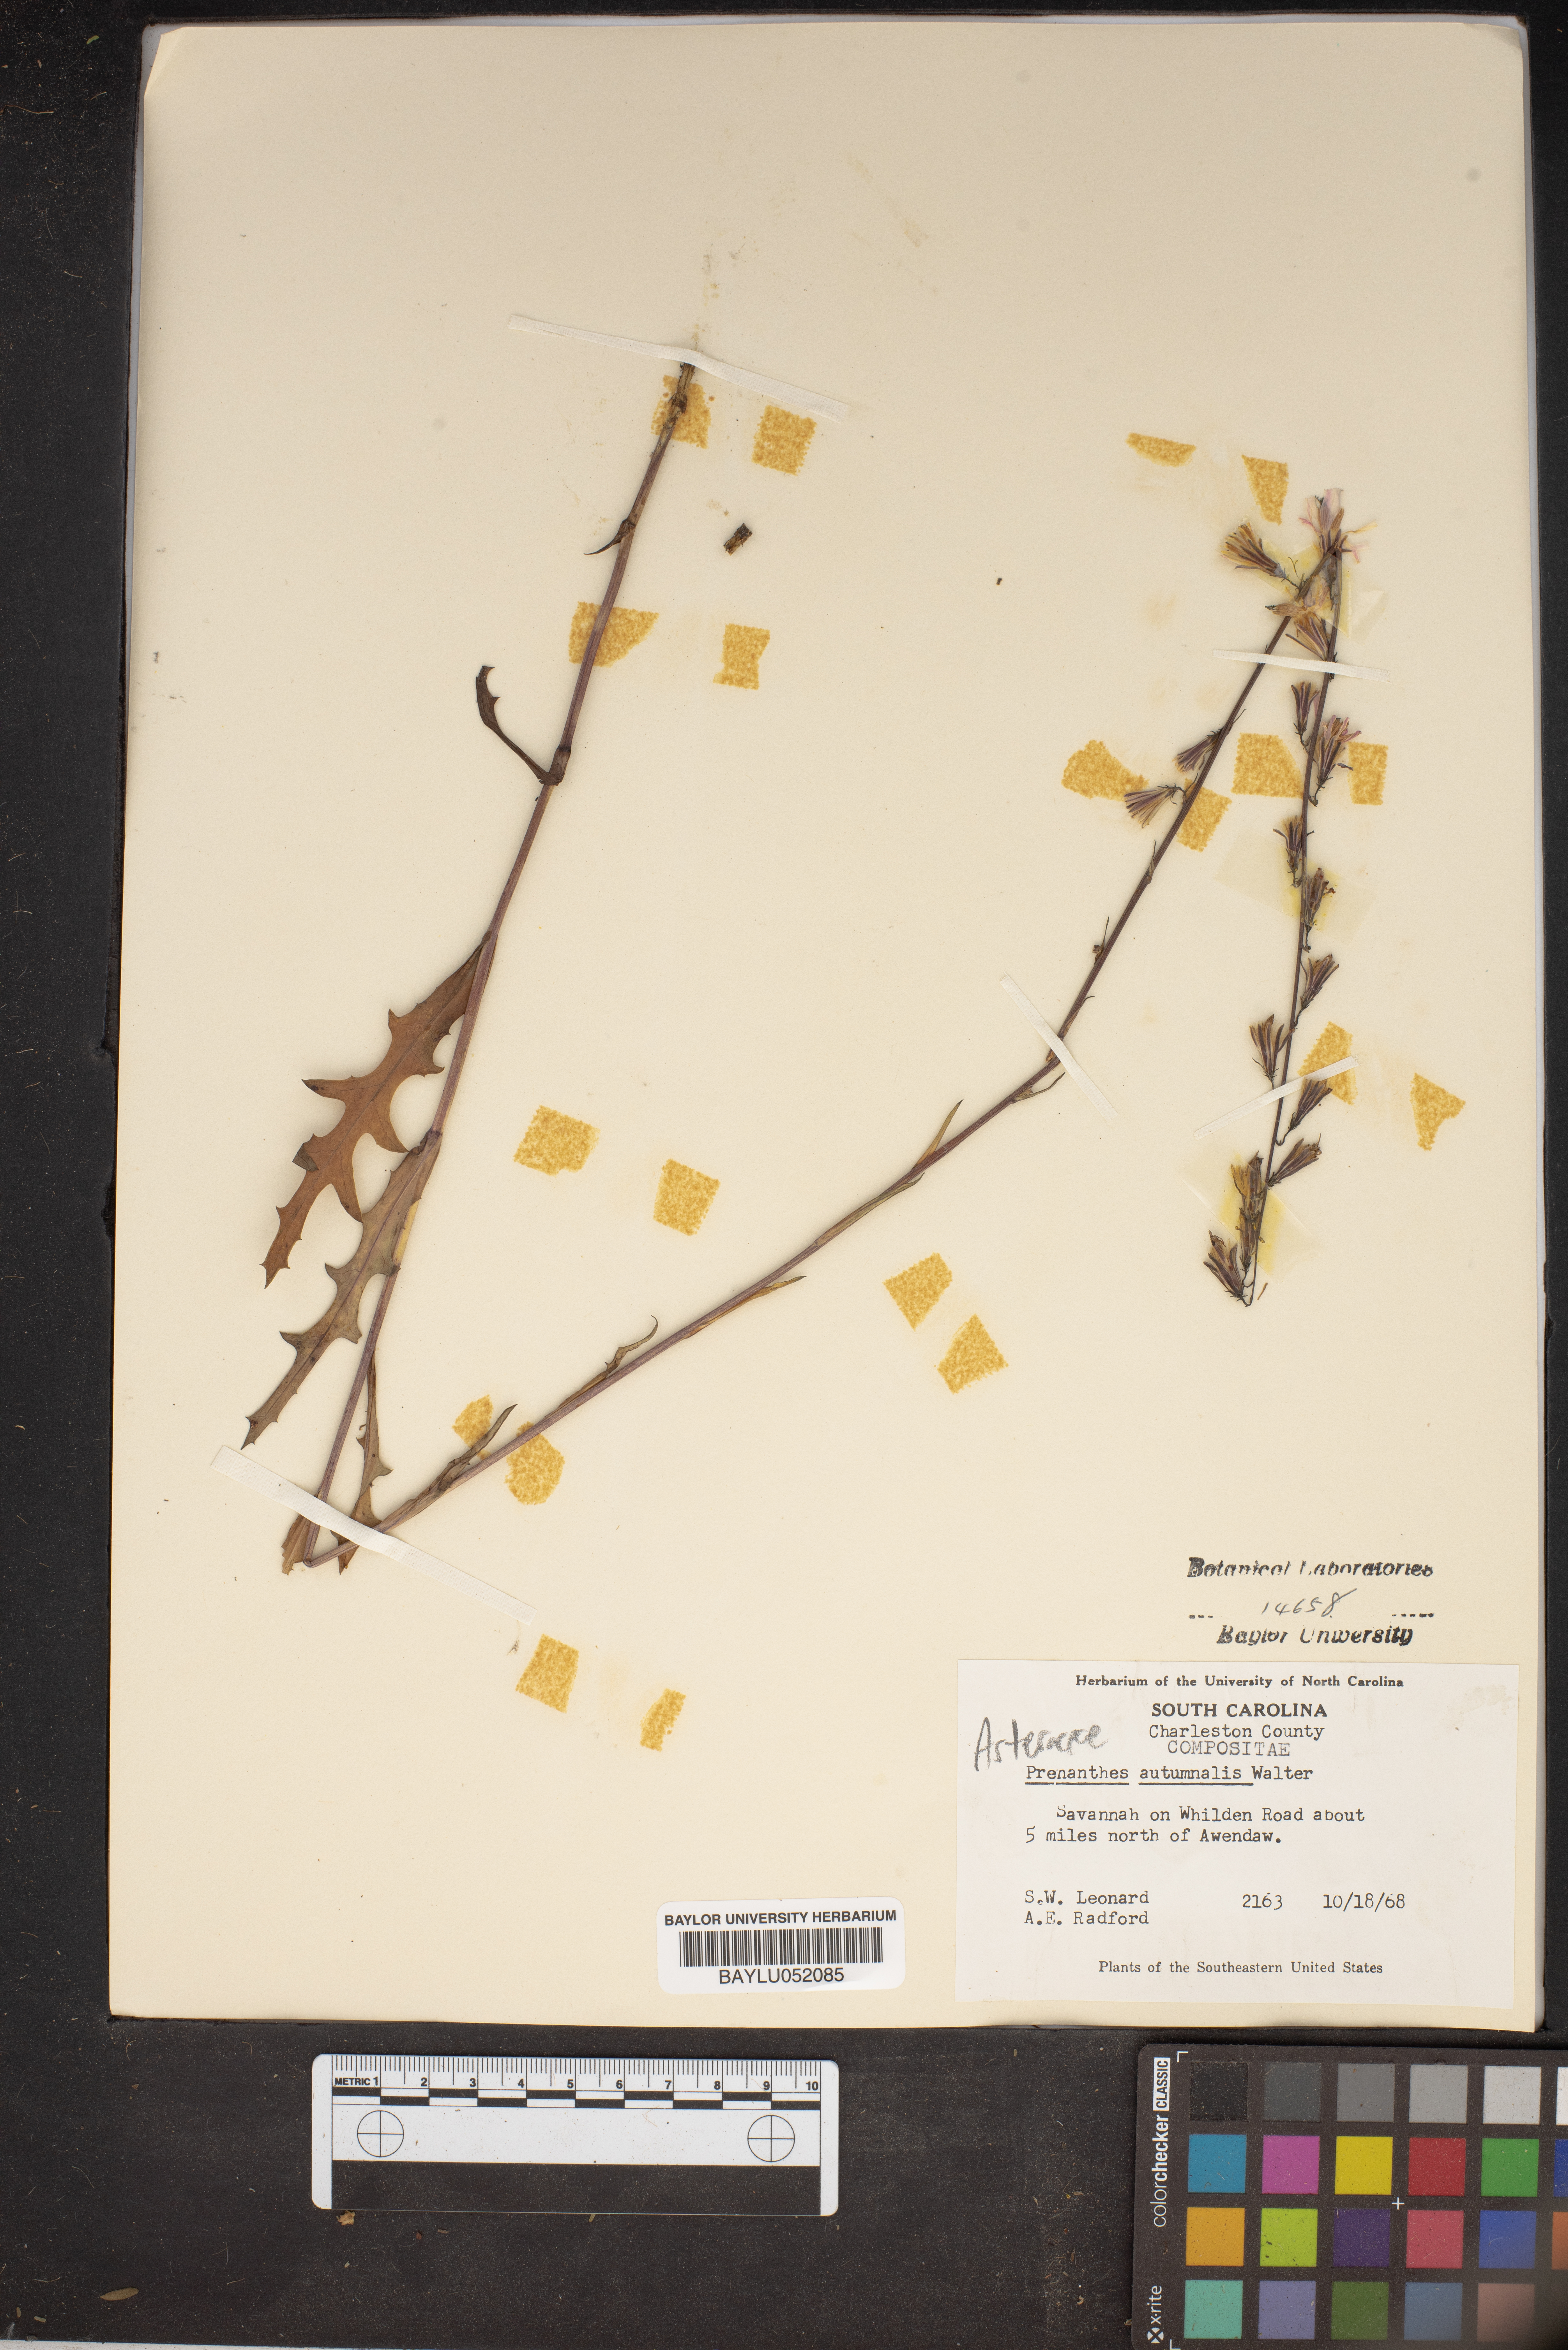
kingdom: Plantae
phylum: Tracheophyta
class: Magnoliopsida
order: Asterales
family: Asteraceae
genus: Nabalus
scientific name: Nabalus autumnalis
